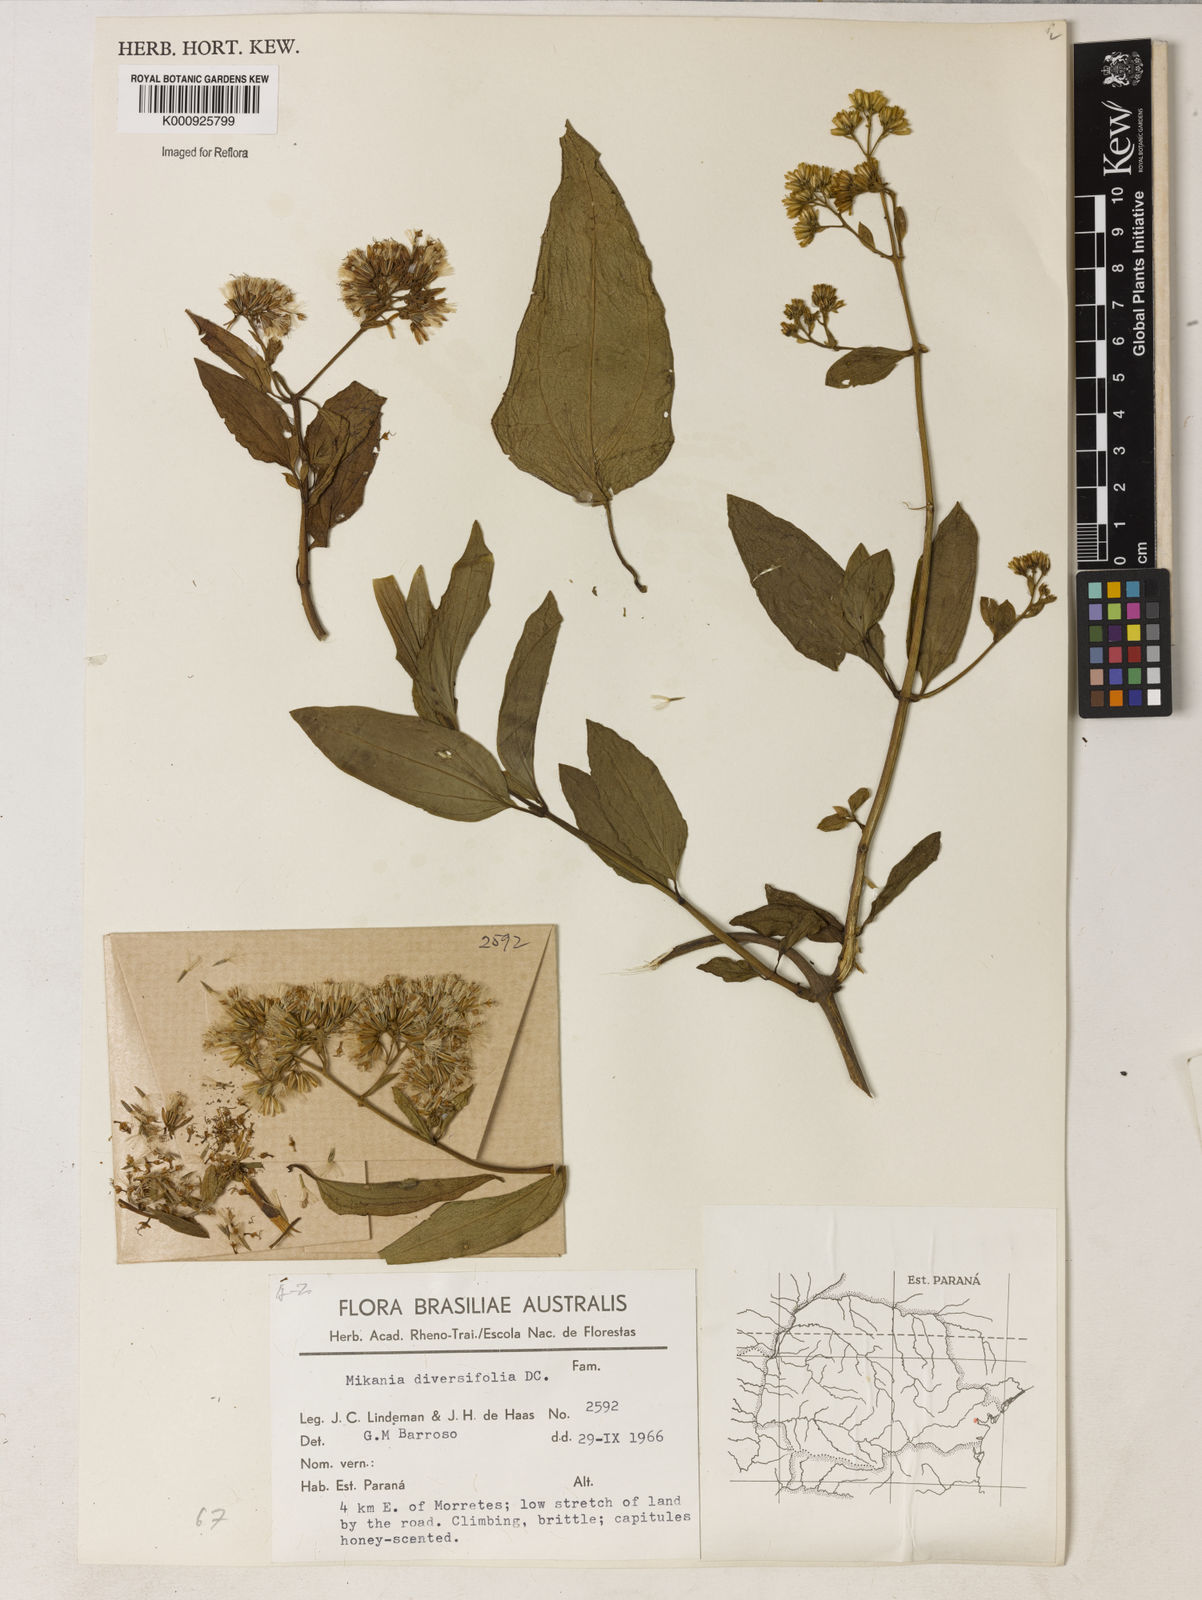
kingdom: Plantae
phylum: Tracheophyta
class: Magnoliopsida
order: Asterales
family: Asteraceae
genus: Mikania
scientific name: Mikania diversifolia
